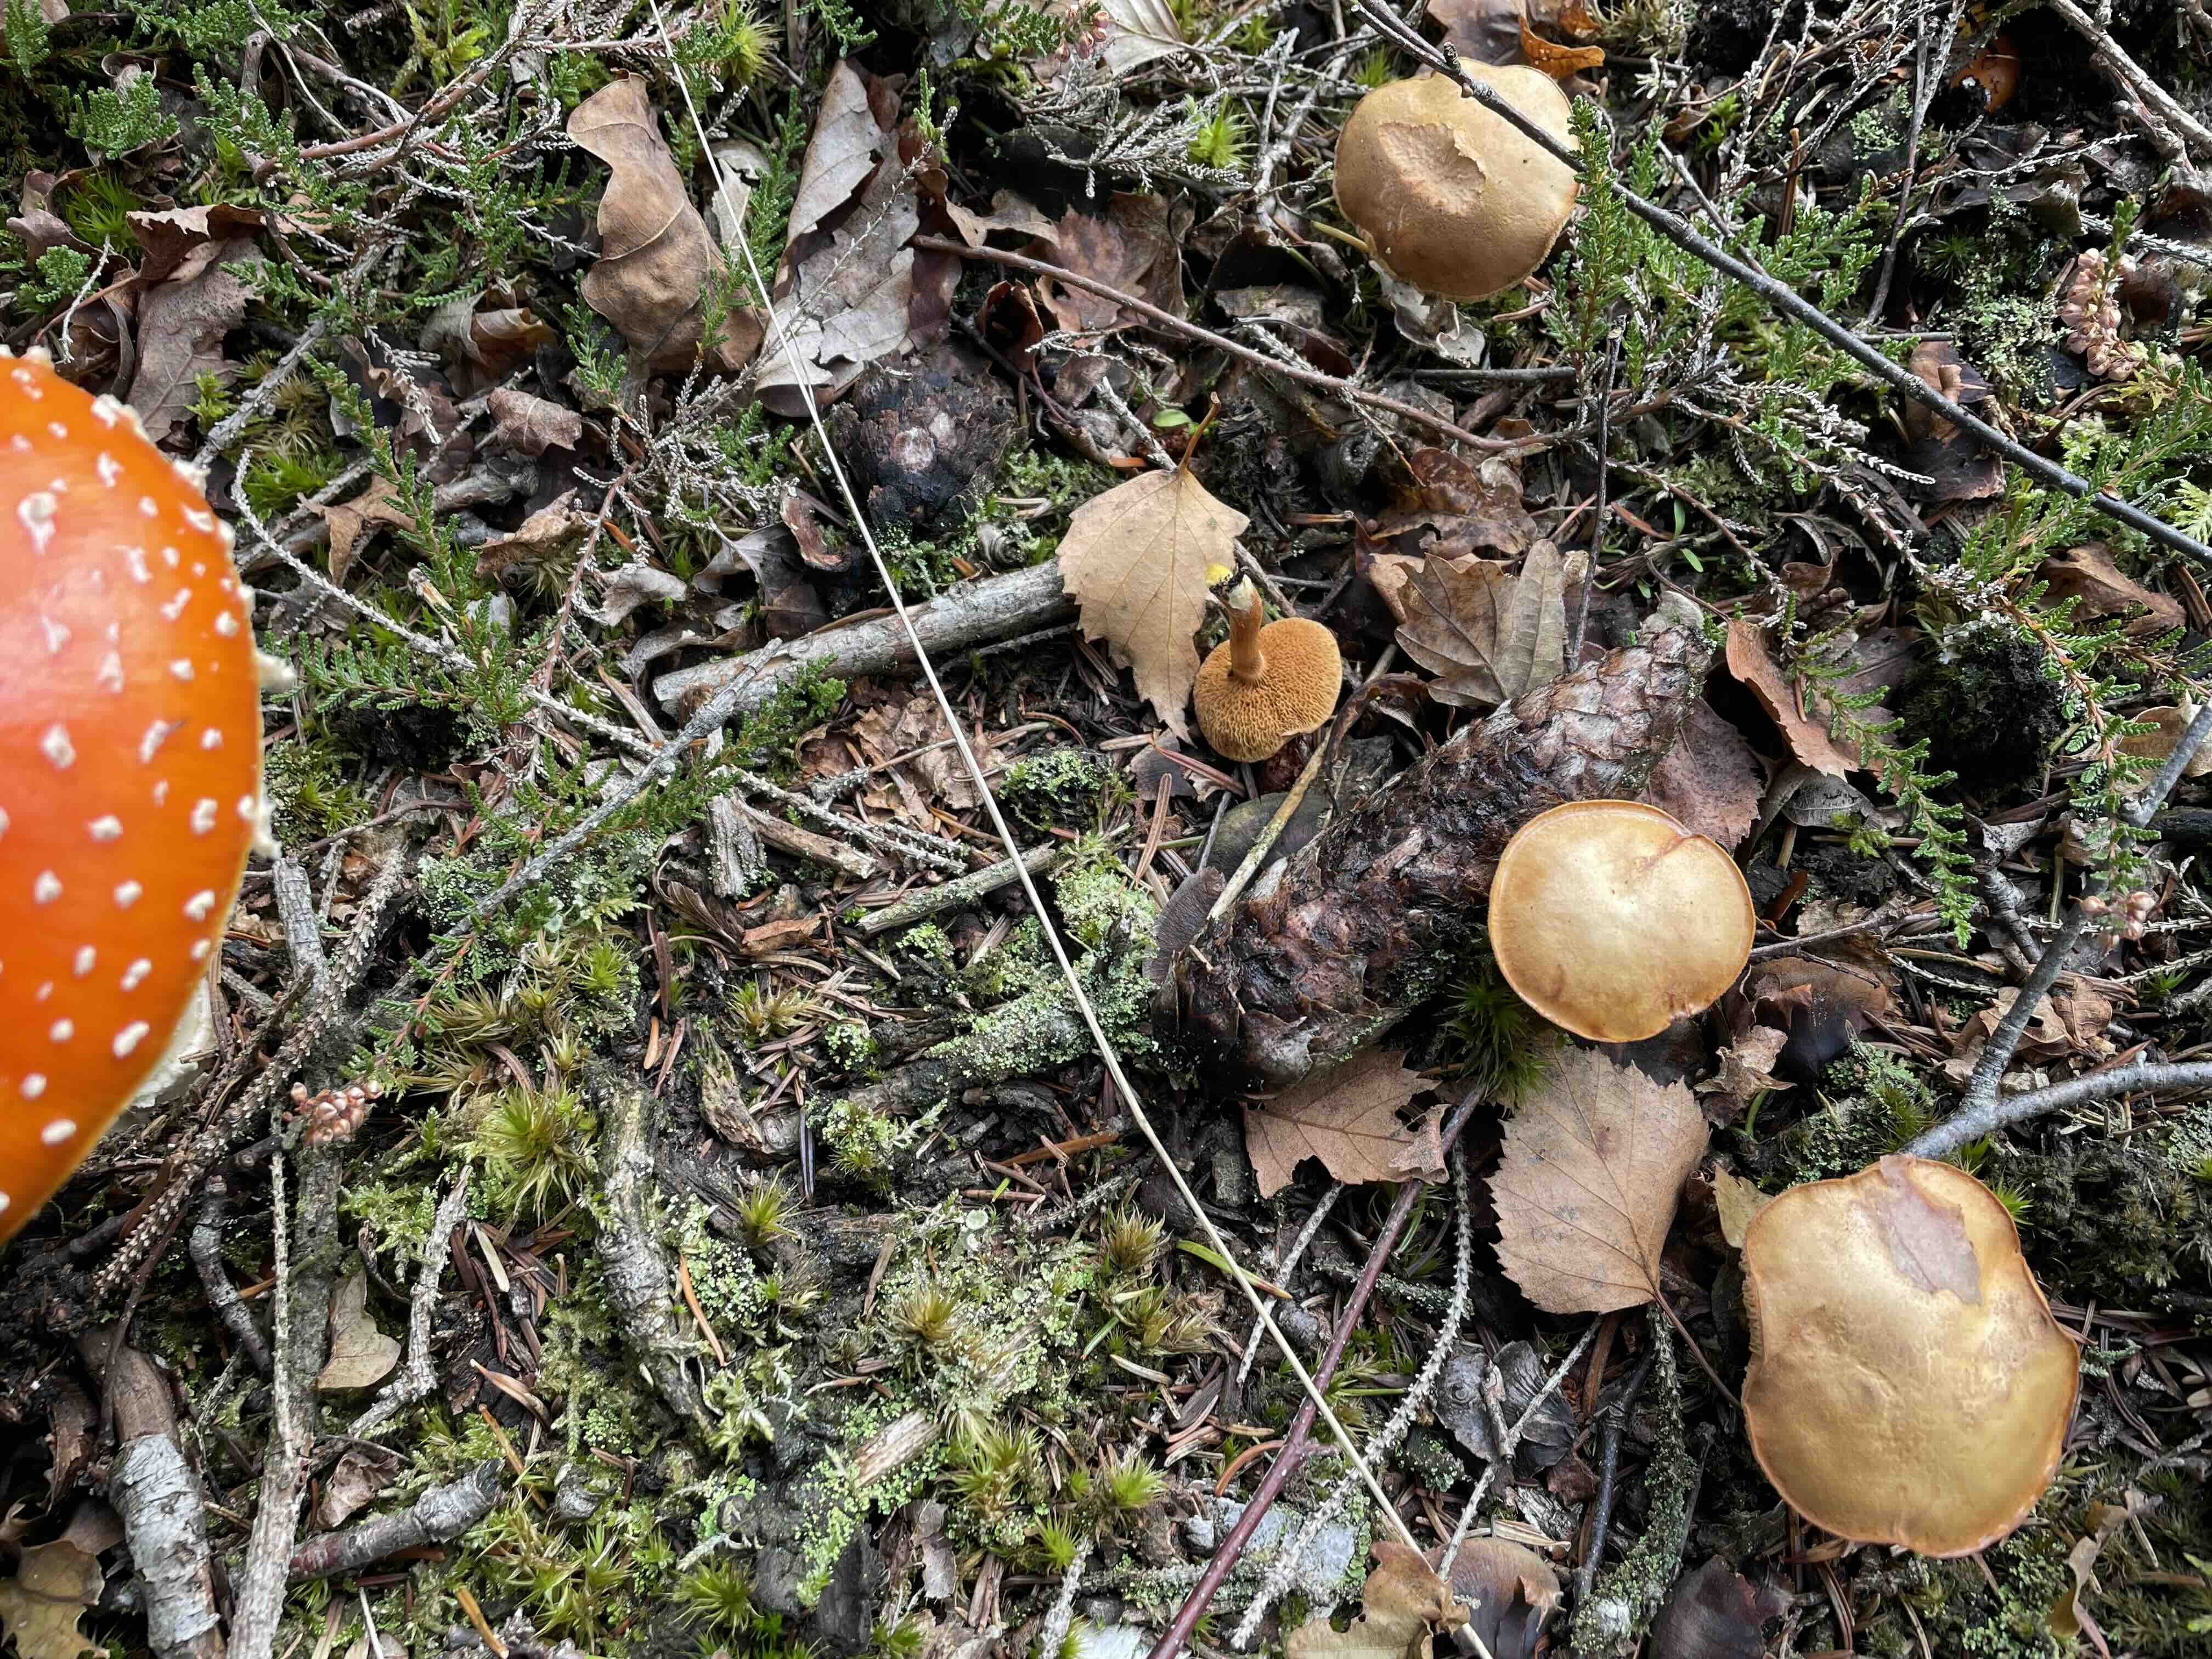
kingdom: Fungi
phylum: Basidiomycota
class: Agaricomycetes
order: Boletales
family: Boletaceae
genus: Chalciporus
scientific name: Chalciporus piperatus
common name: peberrørhat
